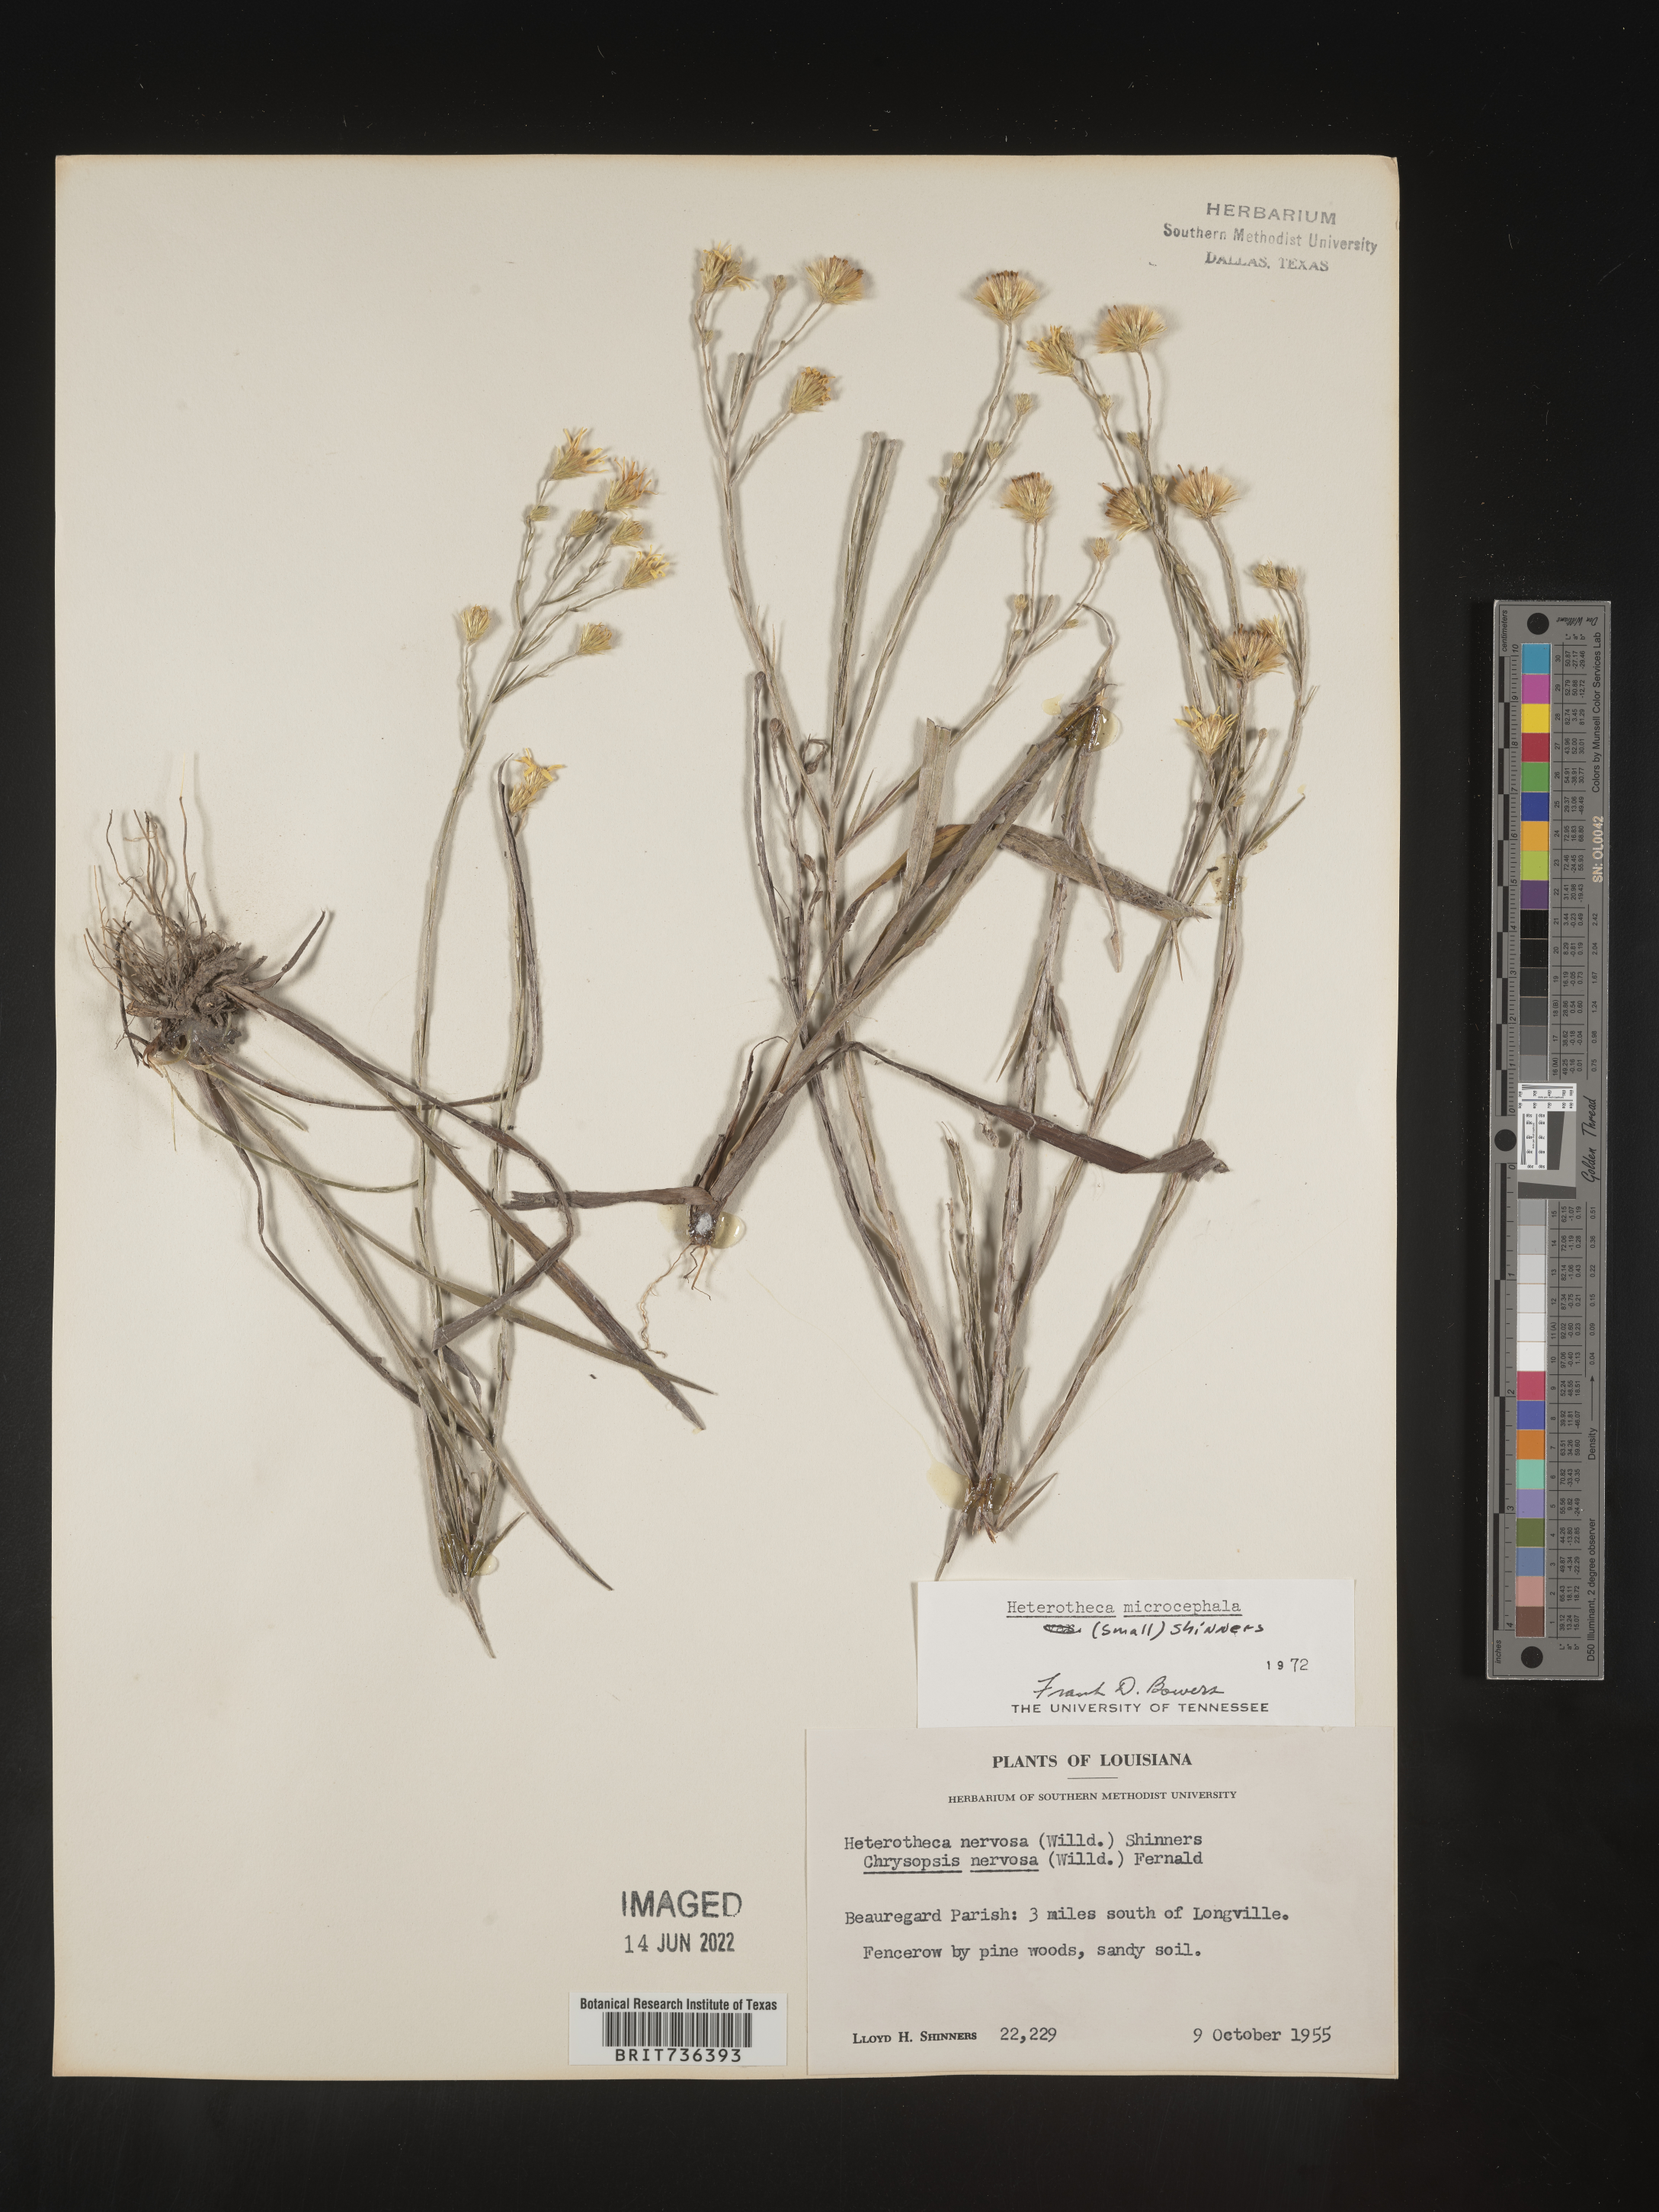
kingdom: Plantae
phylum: Tracheophyta
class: Magnoliopsida
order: Asterales
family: Asteraceae
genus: Pityopsis
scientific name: Pityopsis tenuifolia
